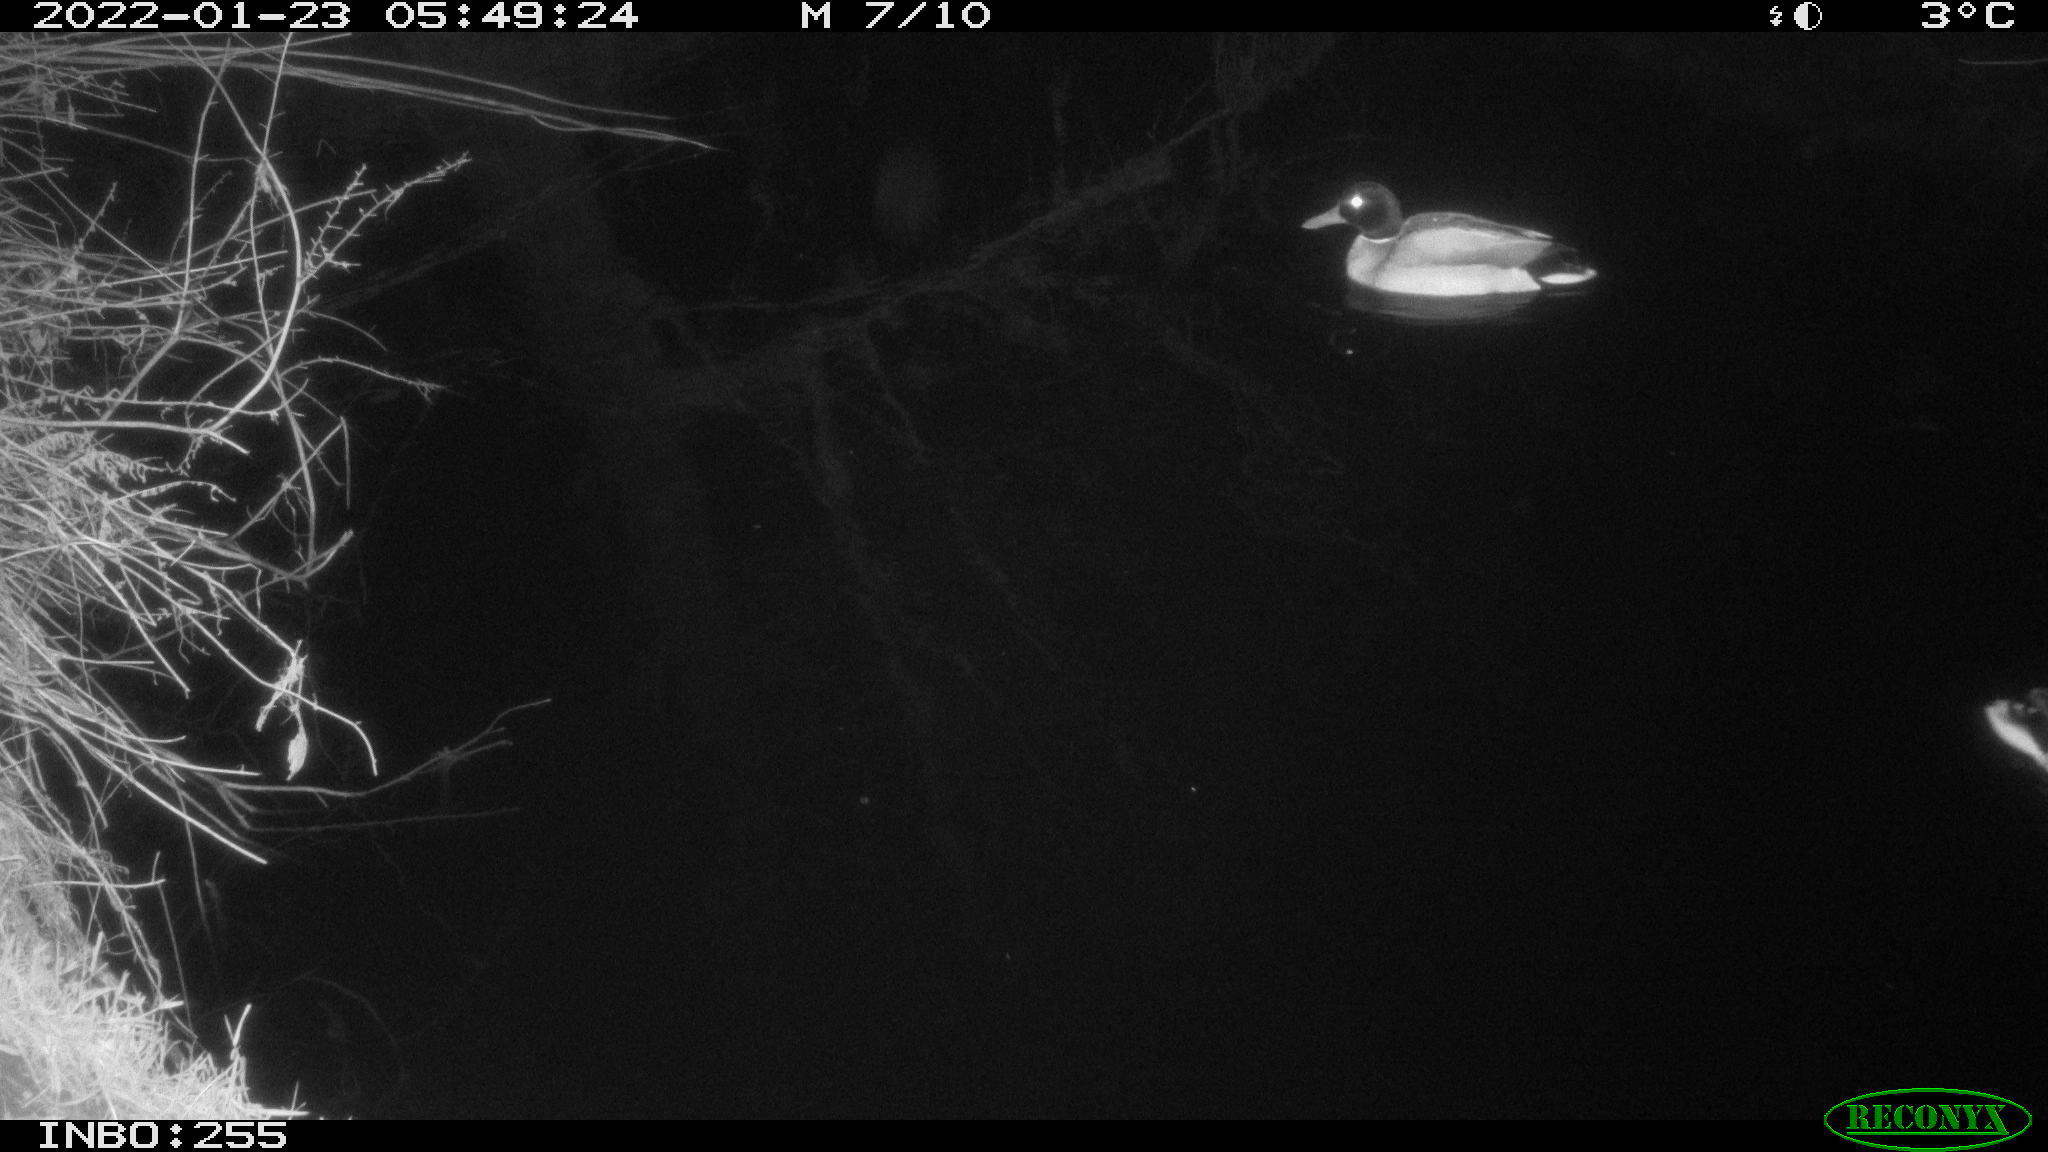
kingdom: Animalia
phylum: Chordata
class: Aves
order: Anseriformes
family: Anatidae
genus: Anas
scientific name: Anas
